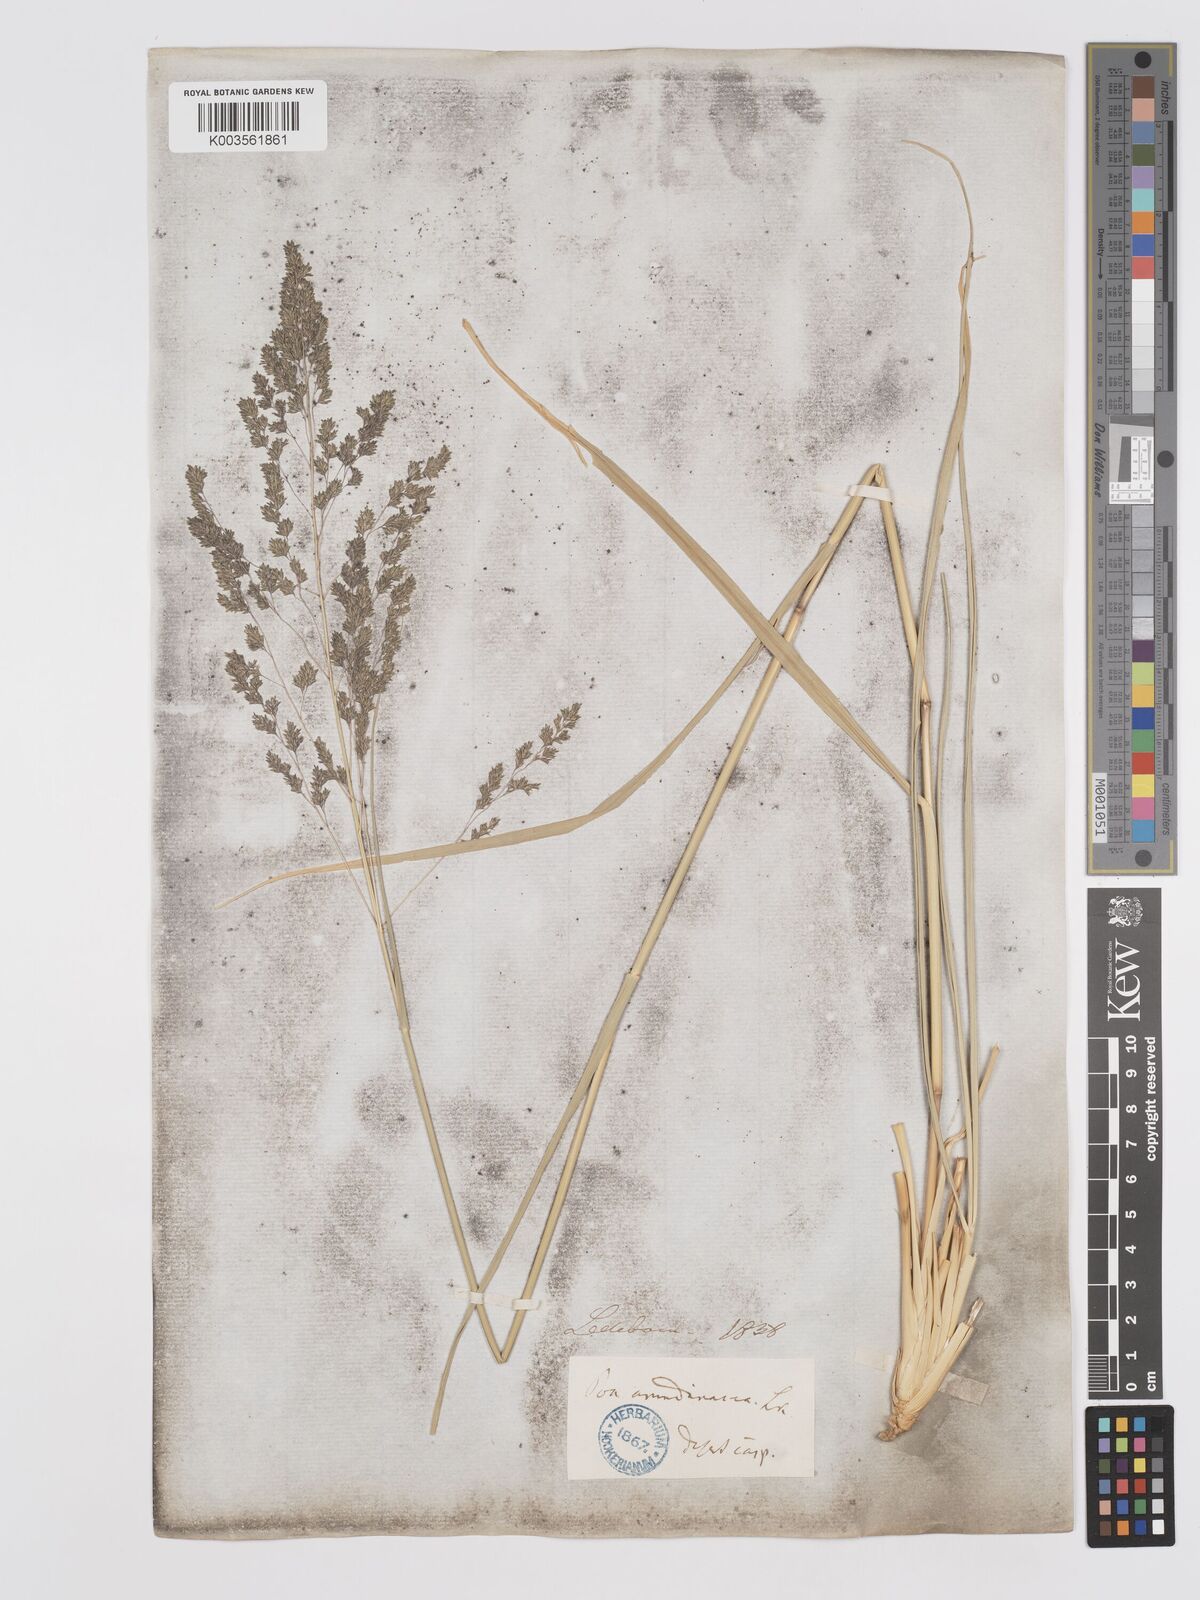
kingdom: Plantae
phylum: Tracheophyta
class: Liliopsida
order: Poales
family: Poaceae
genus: Eragrostis
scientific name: Eragrostis collina
